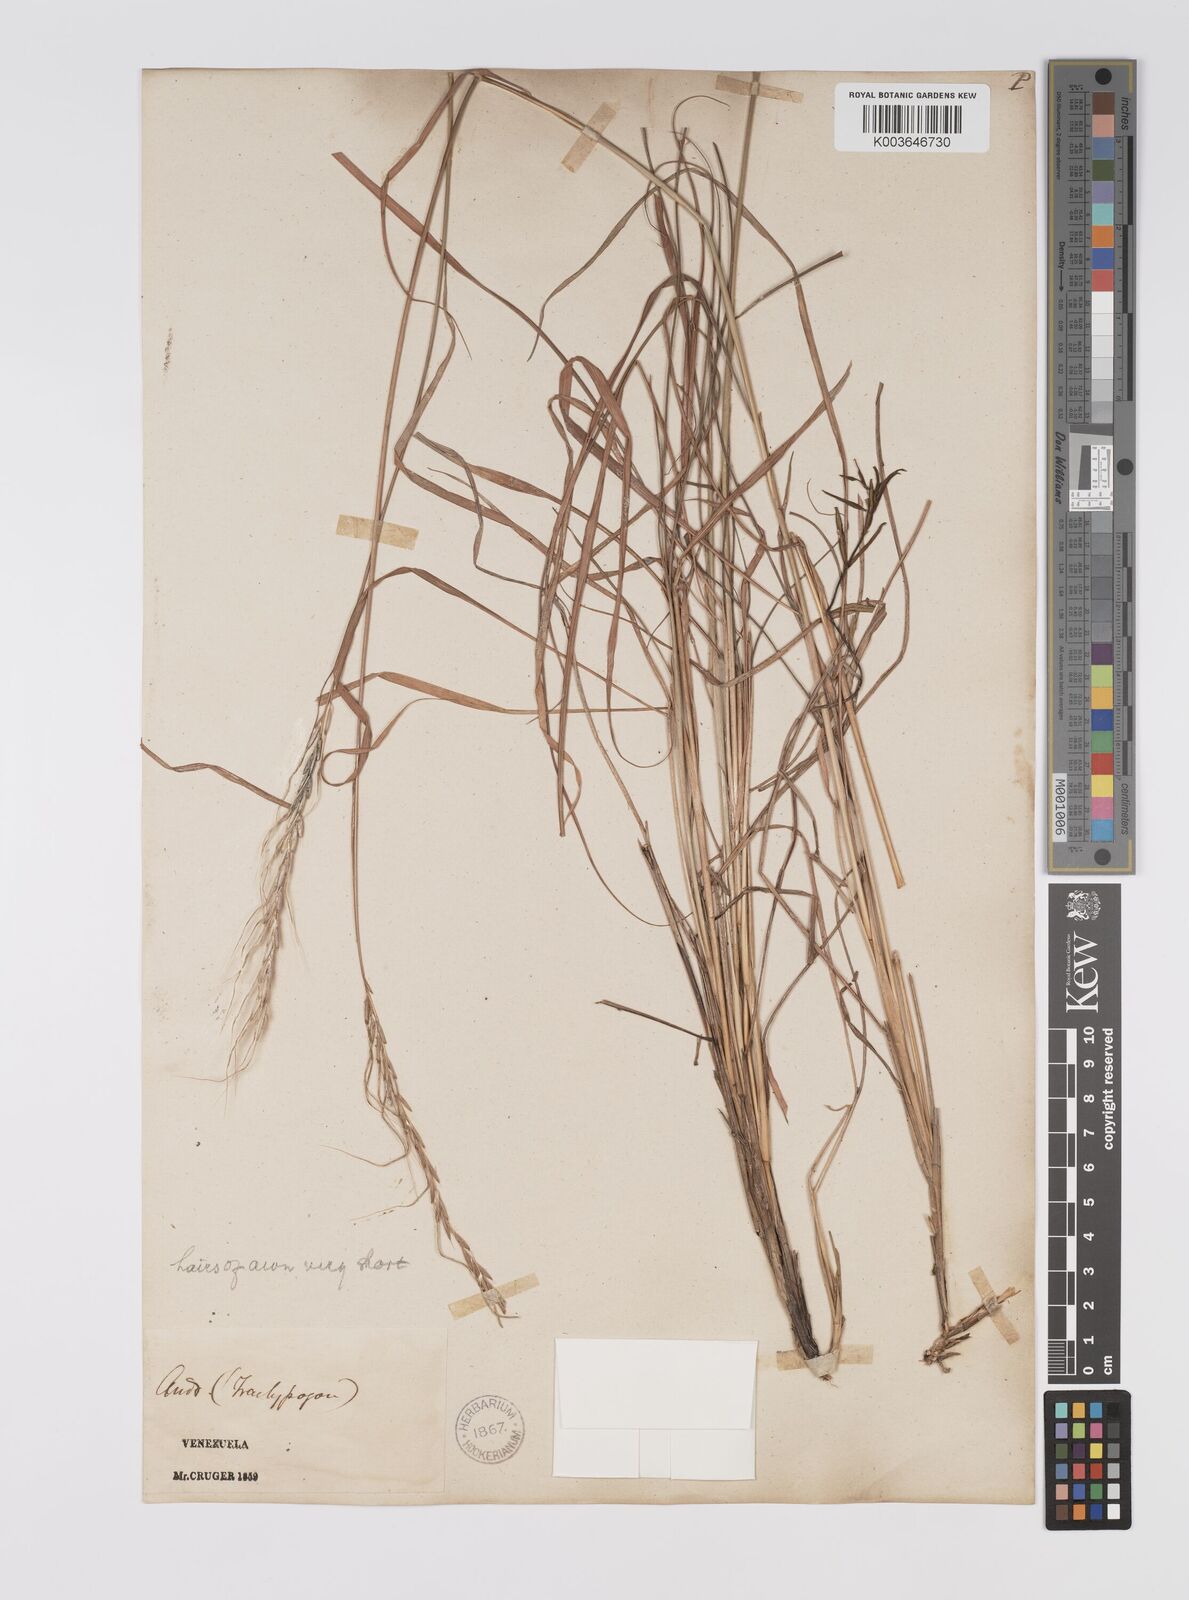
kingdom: Plantae
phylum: Tracheophyta
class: Liliopsida
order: Poales
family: Poaceae
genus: Trachypogon
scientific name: Trachypogon spicatus
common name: Crinkle-awn
